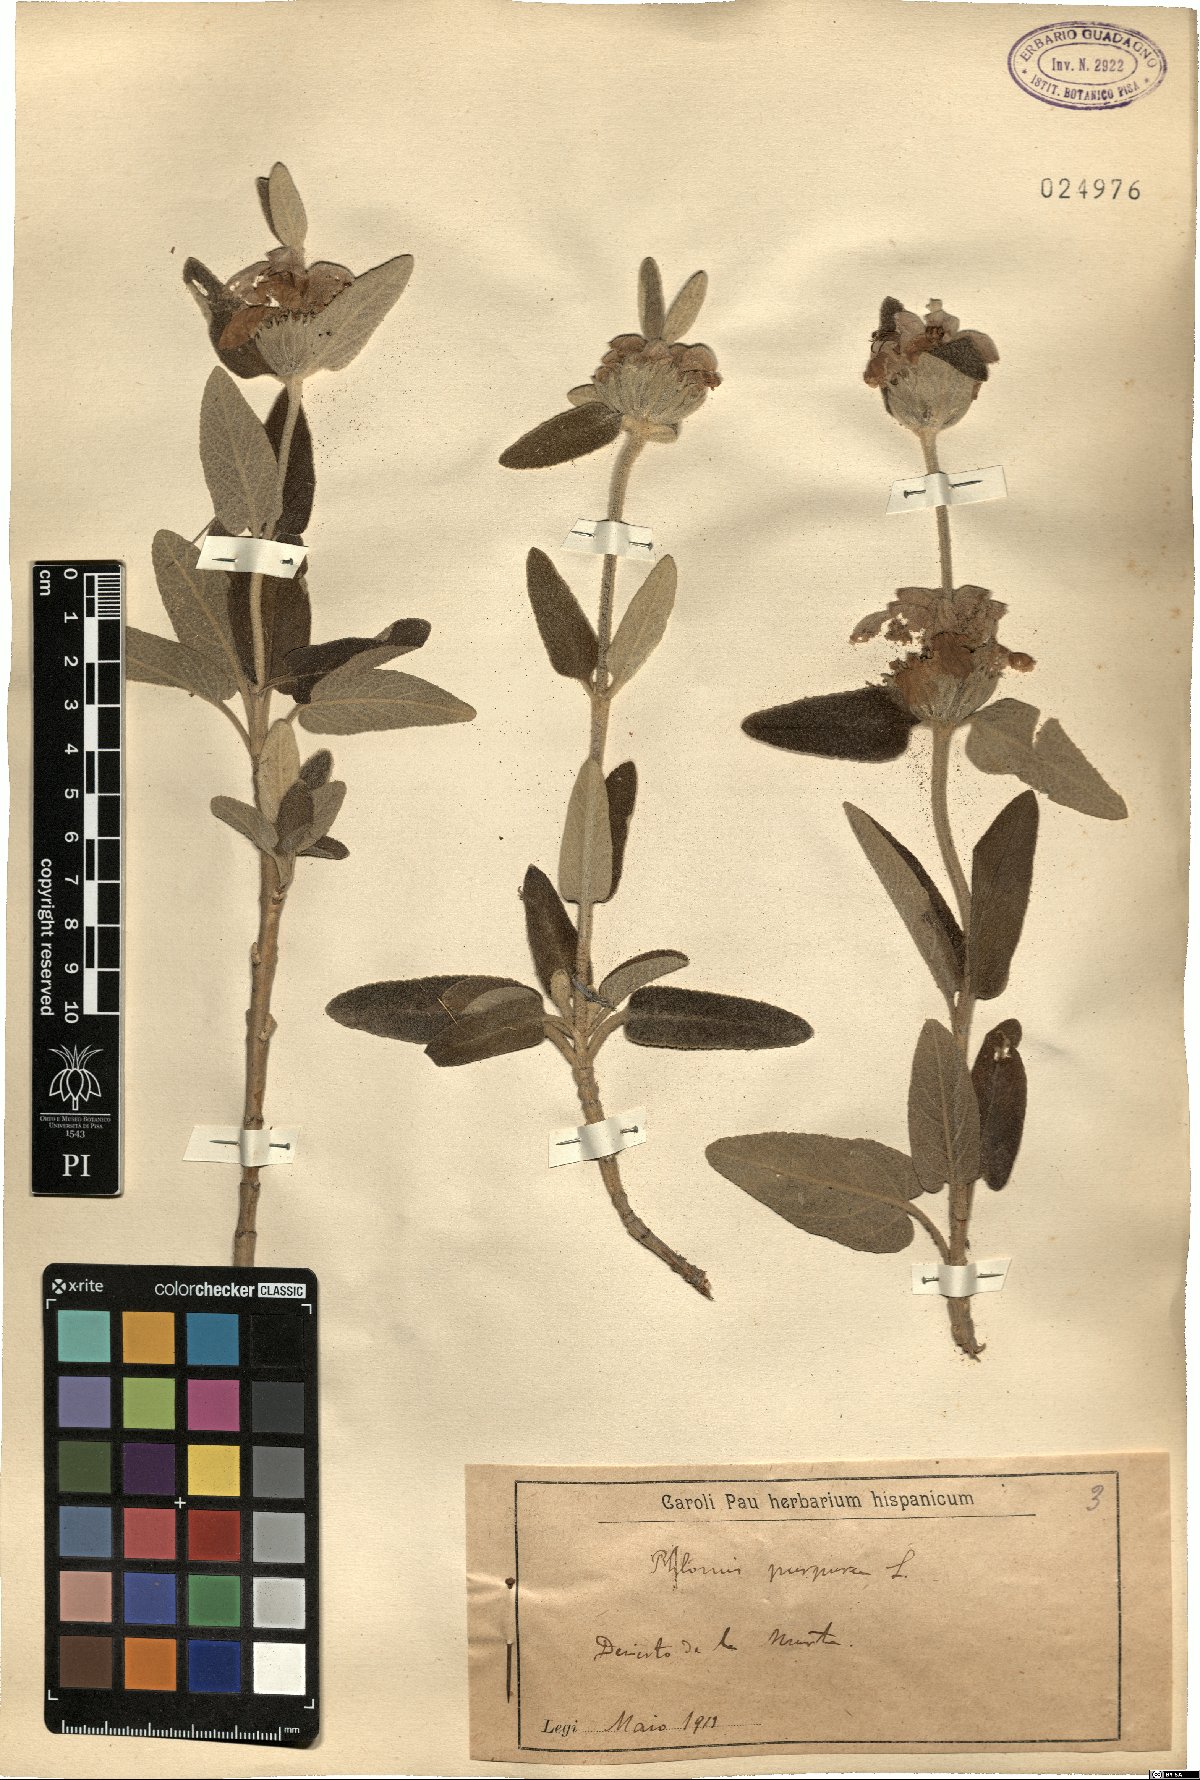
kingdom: Plantae
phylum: Tracheophyta
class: Magnoliopsida
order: Lamiales
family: Lamiaceae
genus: Phlomis
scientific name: Phlomis purpurea
